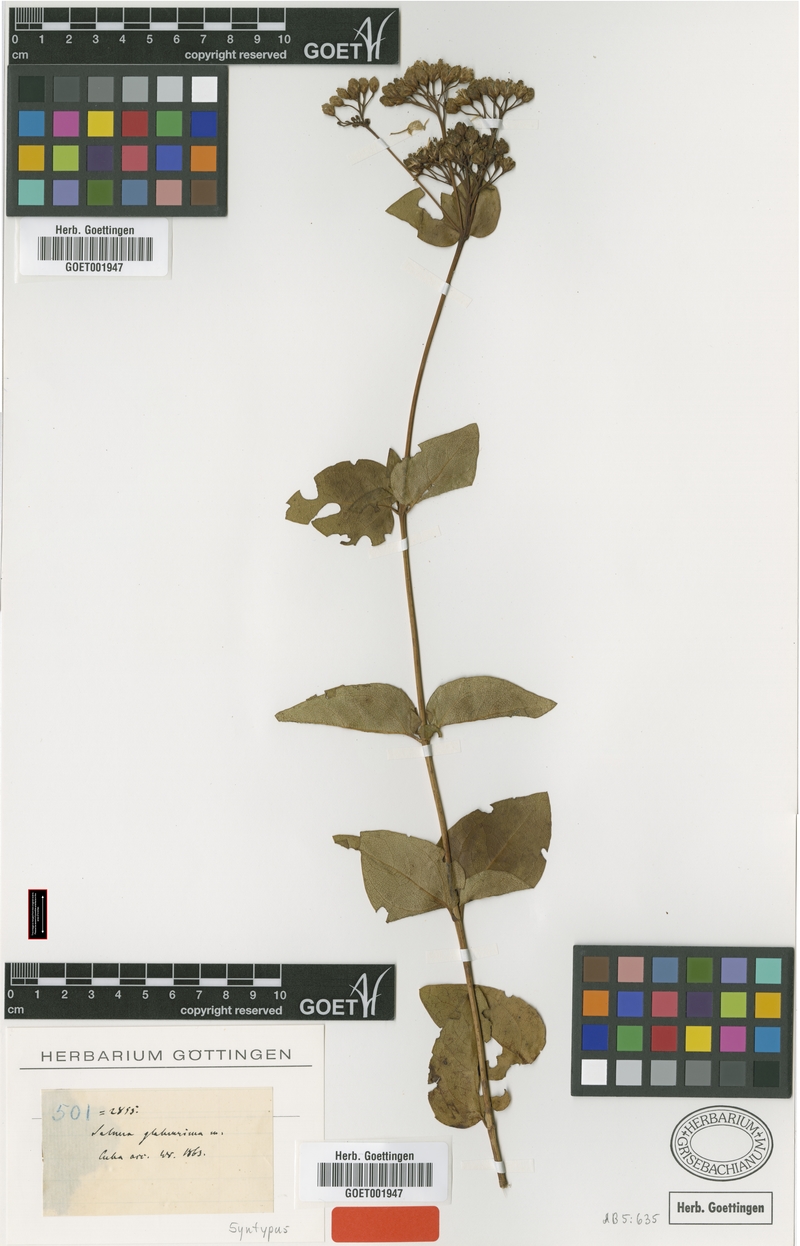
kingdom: Plantae
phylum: Tracheophyta
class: Magnoliopsida
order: Asterales
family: Asteraceae
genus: Salmea
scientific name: Salmea glaberrima
